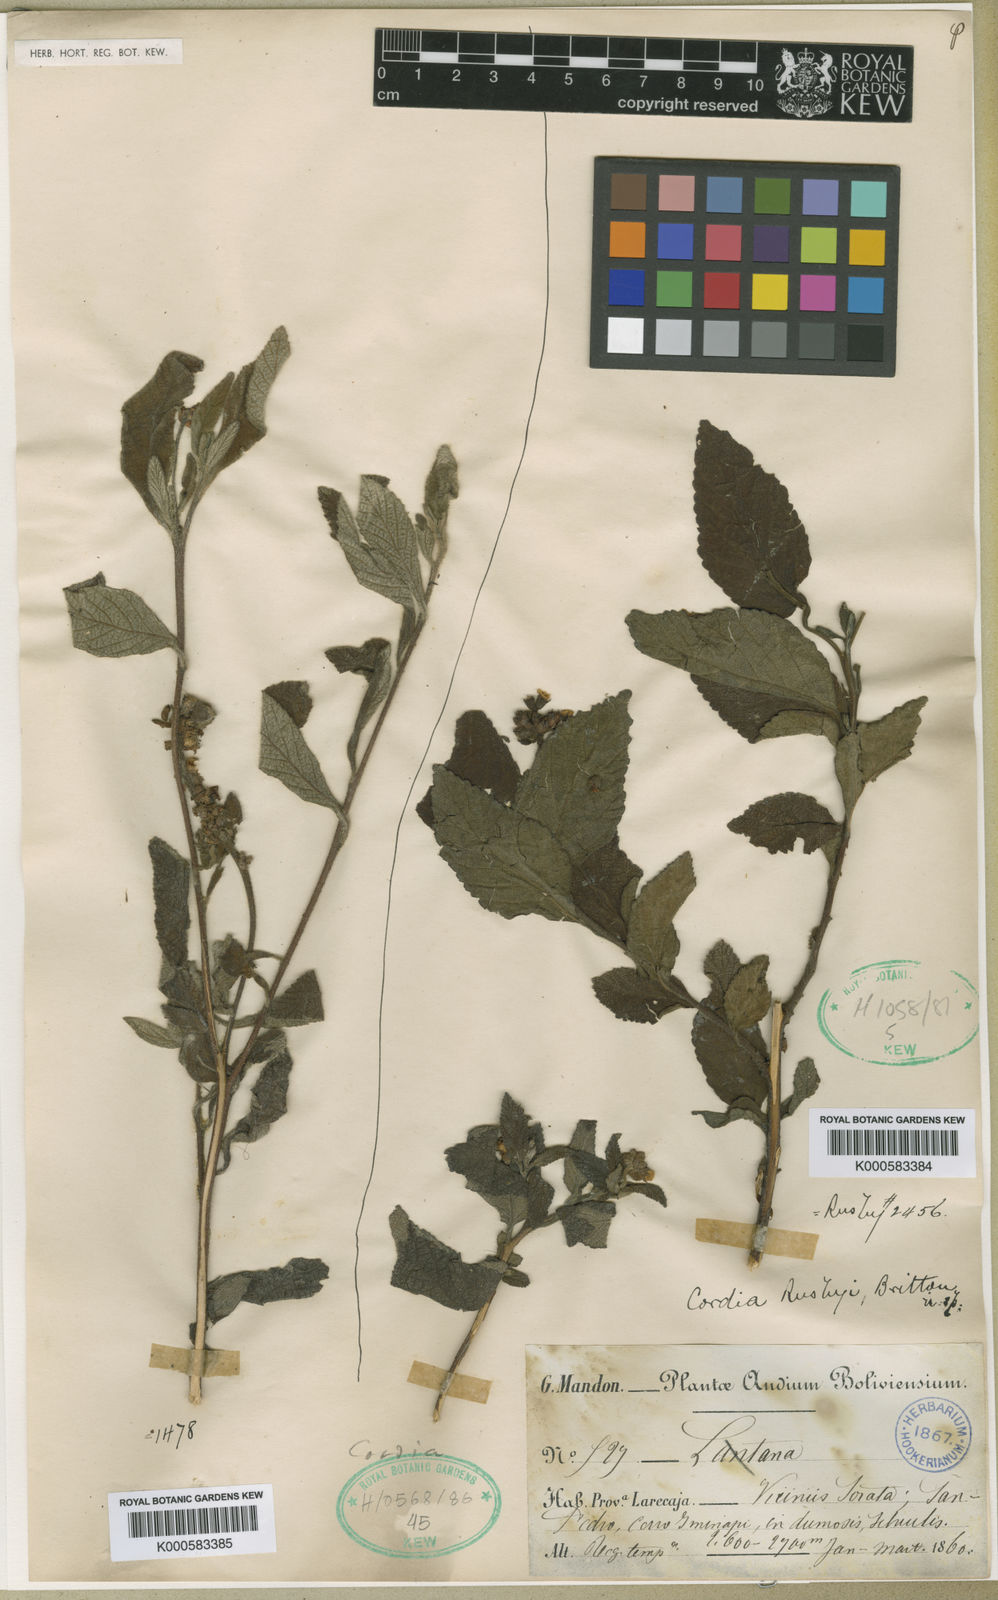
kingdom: Plantae
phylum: Tracheophyta
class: Magnoliopsida
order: Boraginales
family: Cordiaceae
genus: Cordia
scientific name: Cordia alliodora
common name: Spanish elm
